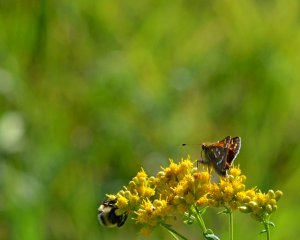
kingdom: Animalia
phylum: Arthropoda
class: Insecta
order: Lepidoptera
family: Hesperiidae
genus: Hesperia
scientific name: Hesperia comma
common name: Common Branded Skipper
